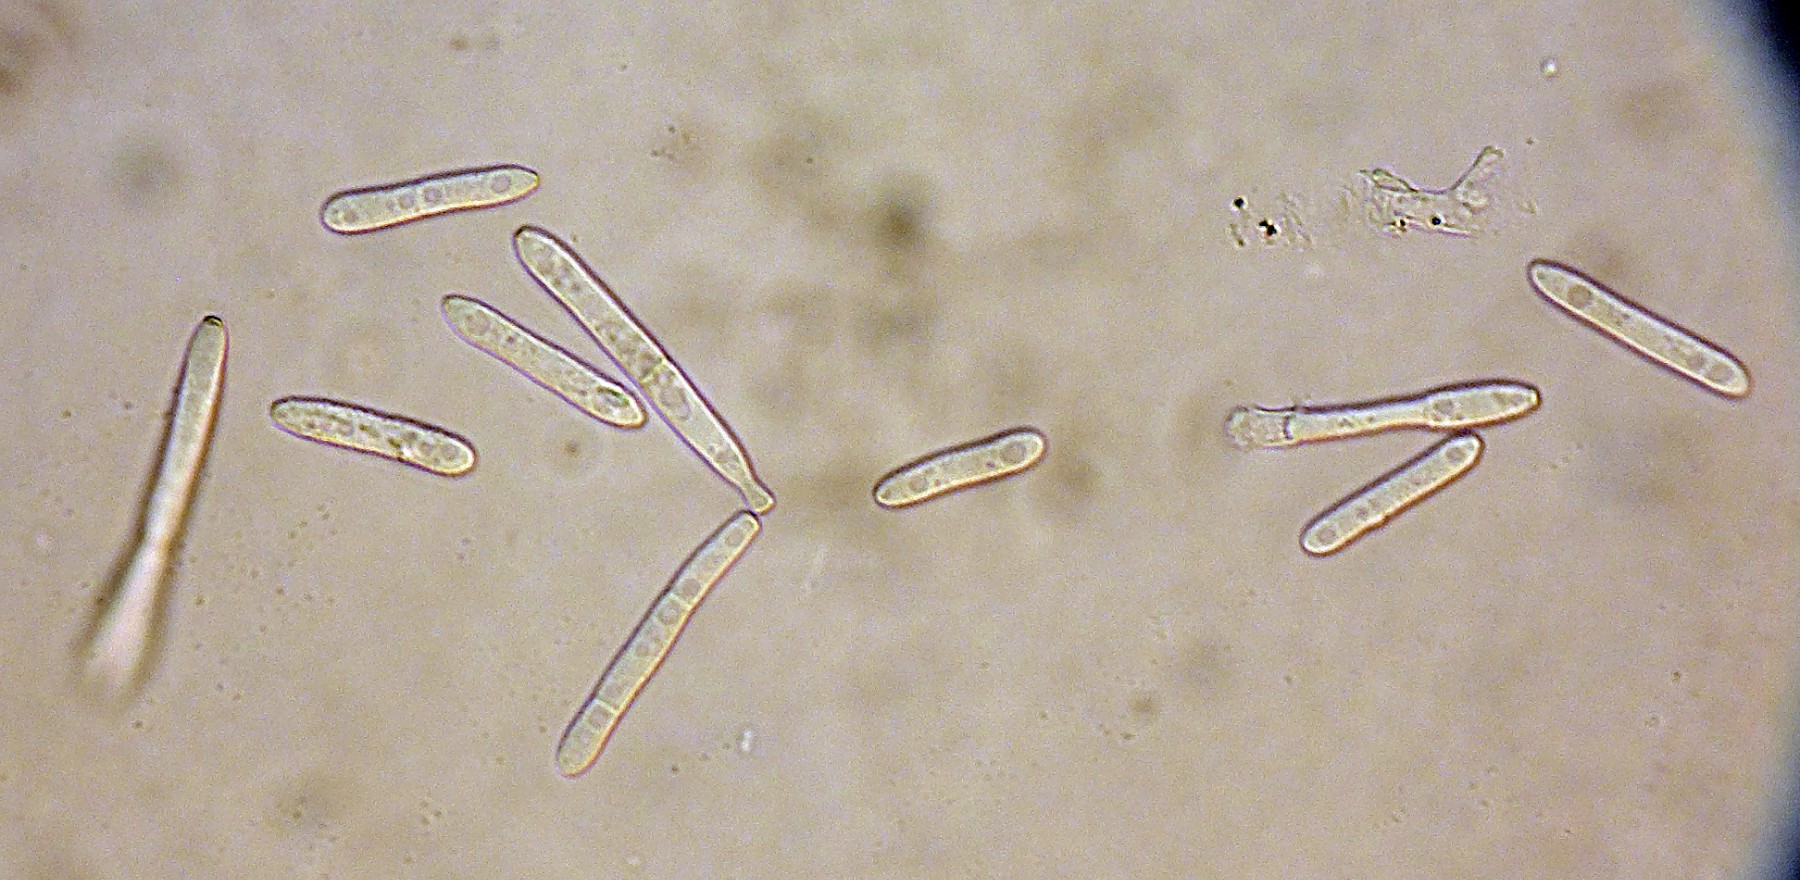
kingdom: Fungi
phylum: Ascomycota
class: Dothideomycetes
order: Mycosphaerellales
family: Mycosphaerellaceae
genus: Ramularia
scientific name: Ramularia inaequalis
